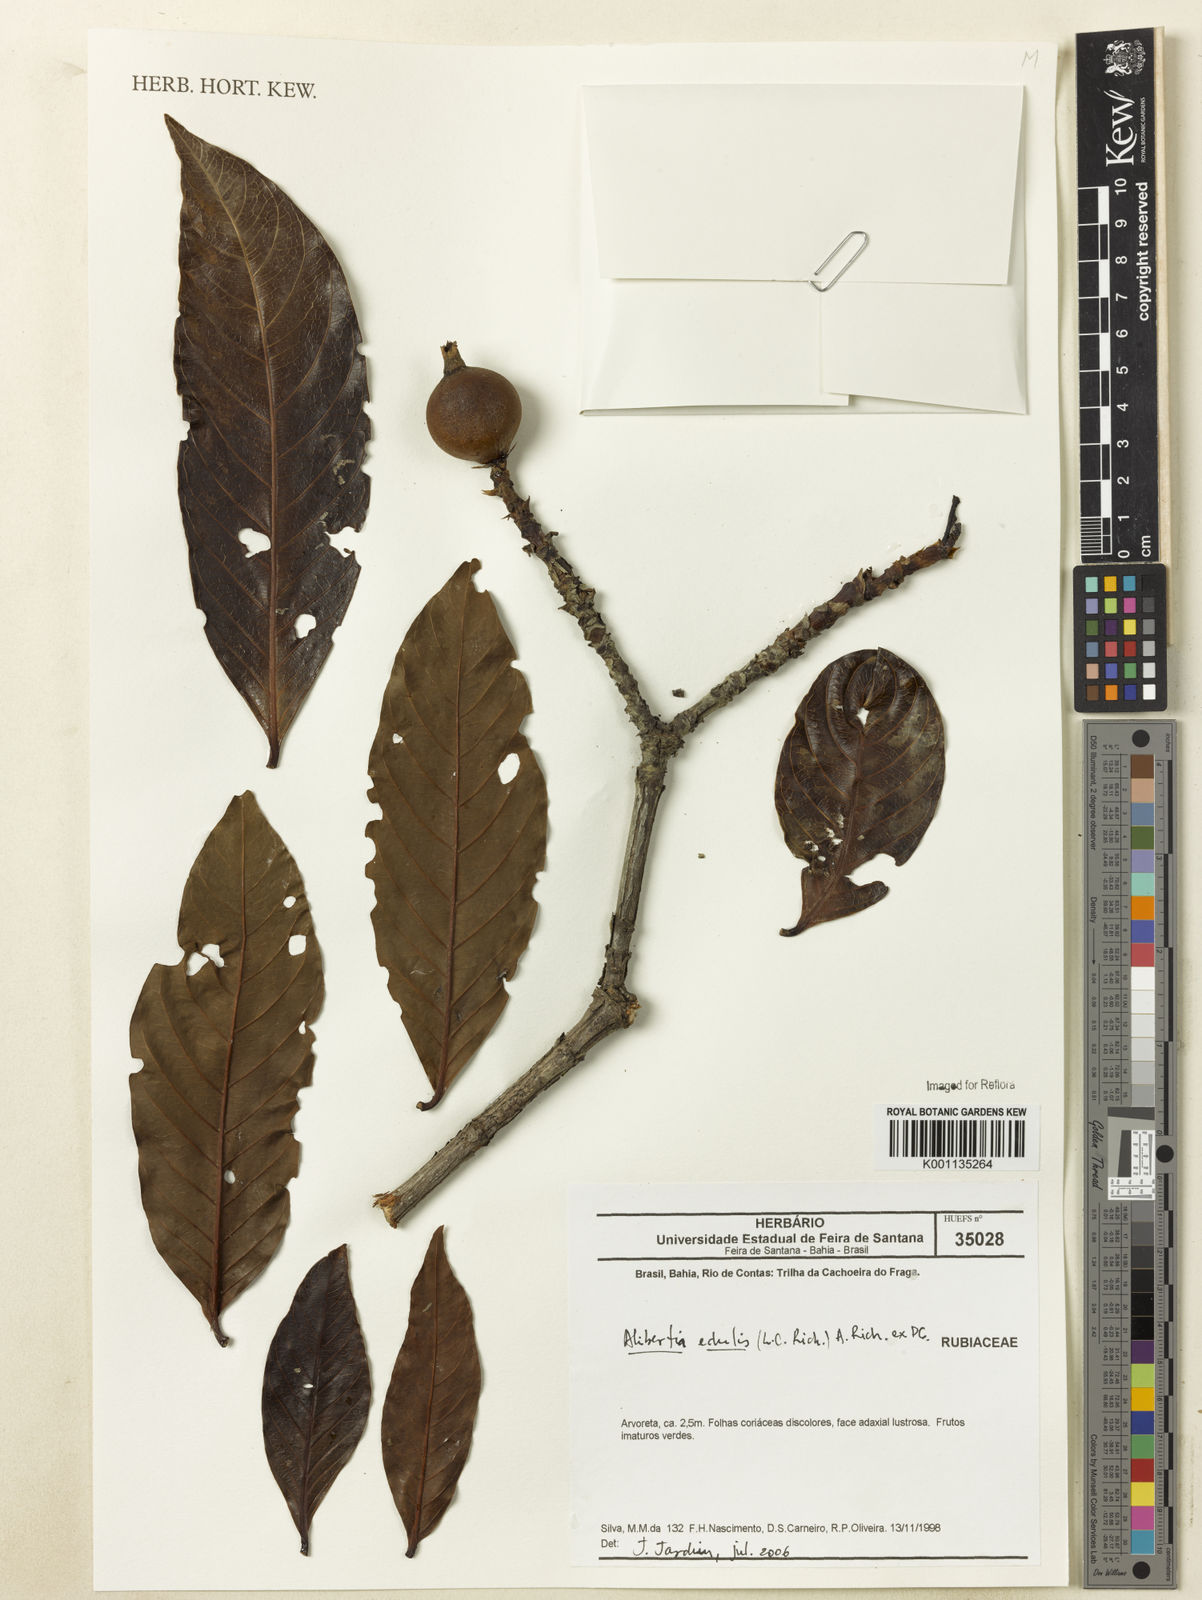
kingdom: Plantae
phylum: Tracheophyta
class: Magnoliopsida
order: Gentianales
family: Rubiaceae
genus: Alibertia
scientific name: Alibertia edulis
